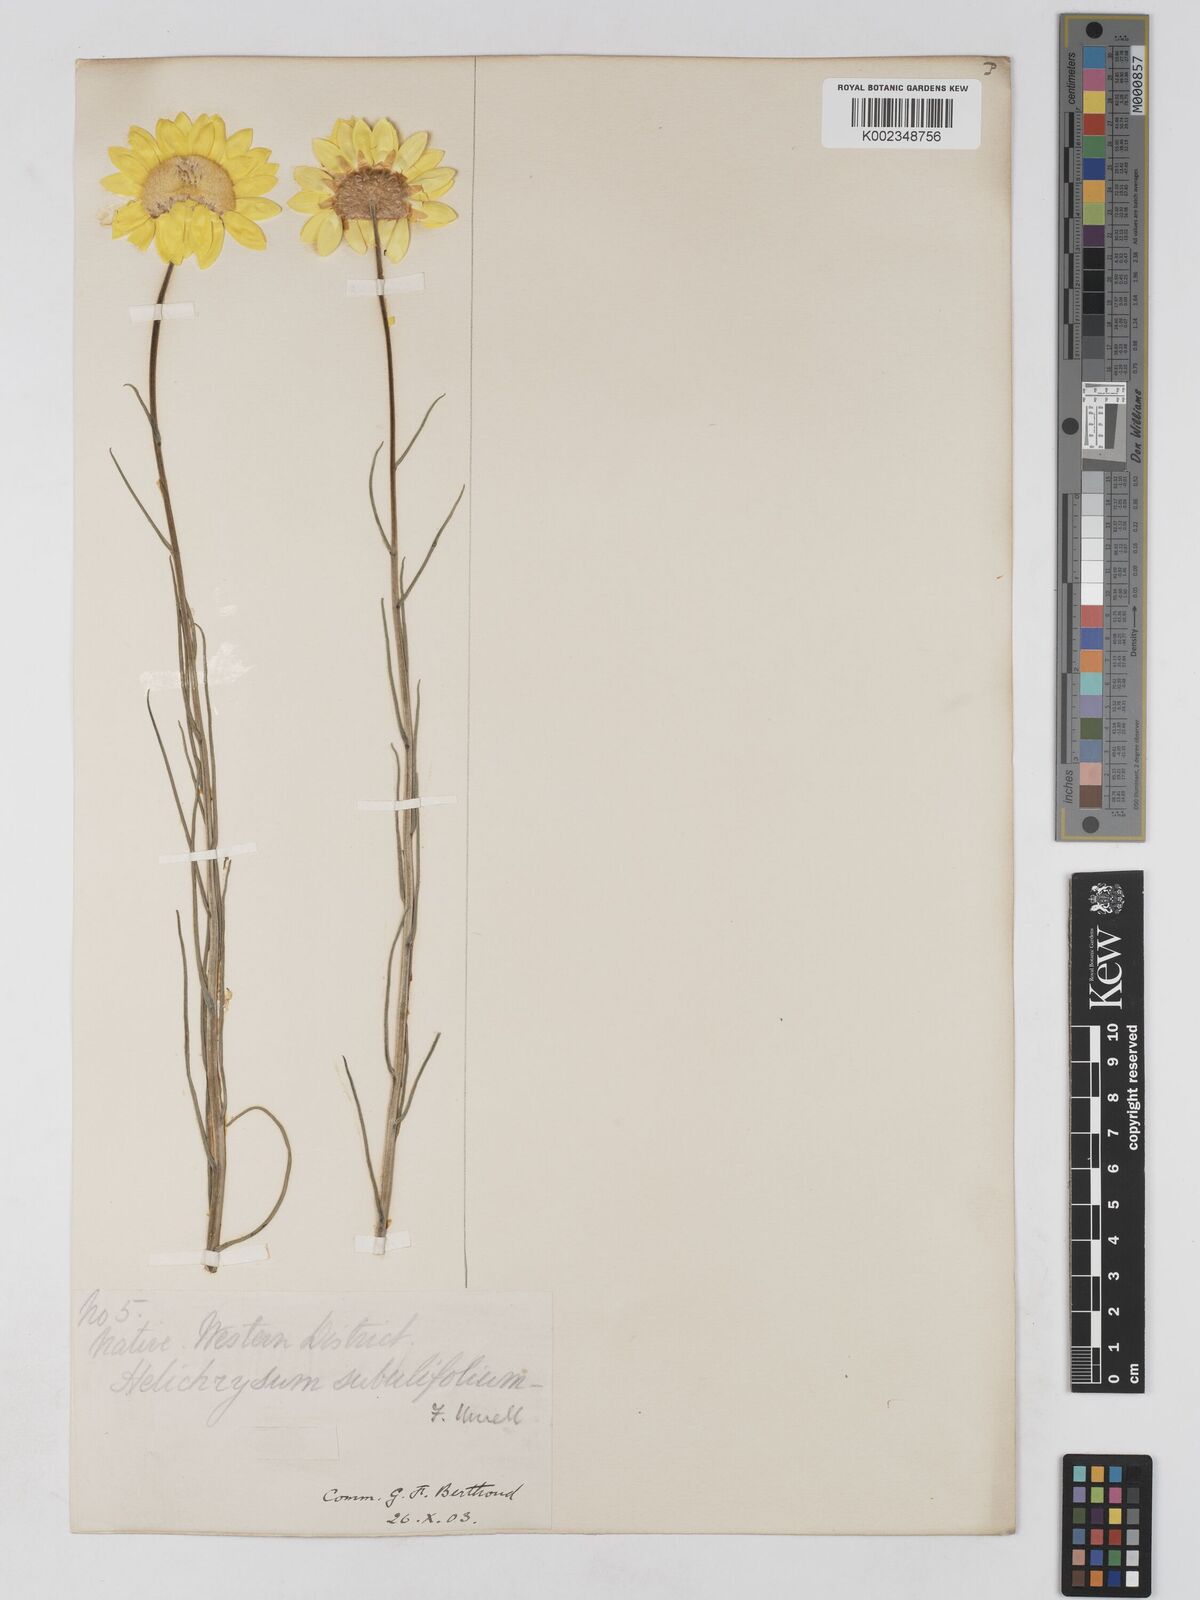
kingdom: Plantae
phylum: Tracheophyta
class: Magnoliopsida
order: Asterales
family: Asteraceae
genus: Schoenia
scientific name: Schoenia filifolia
